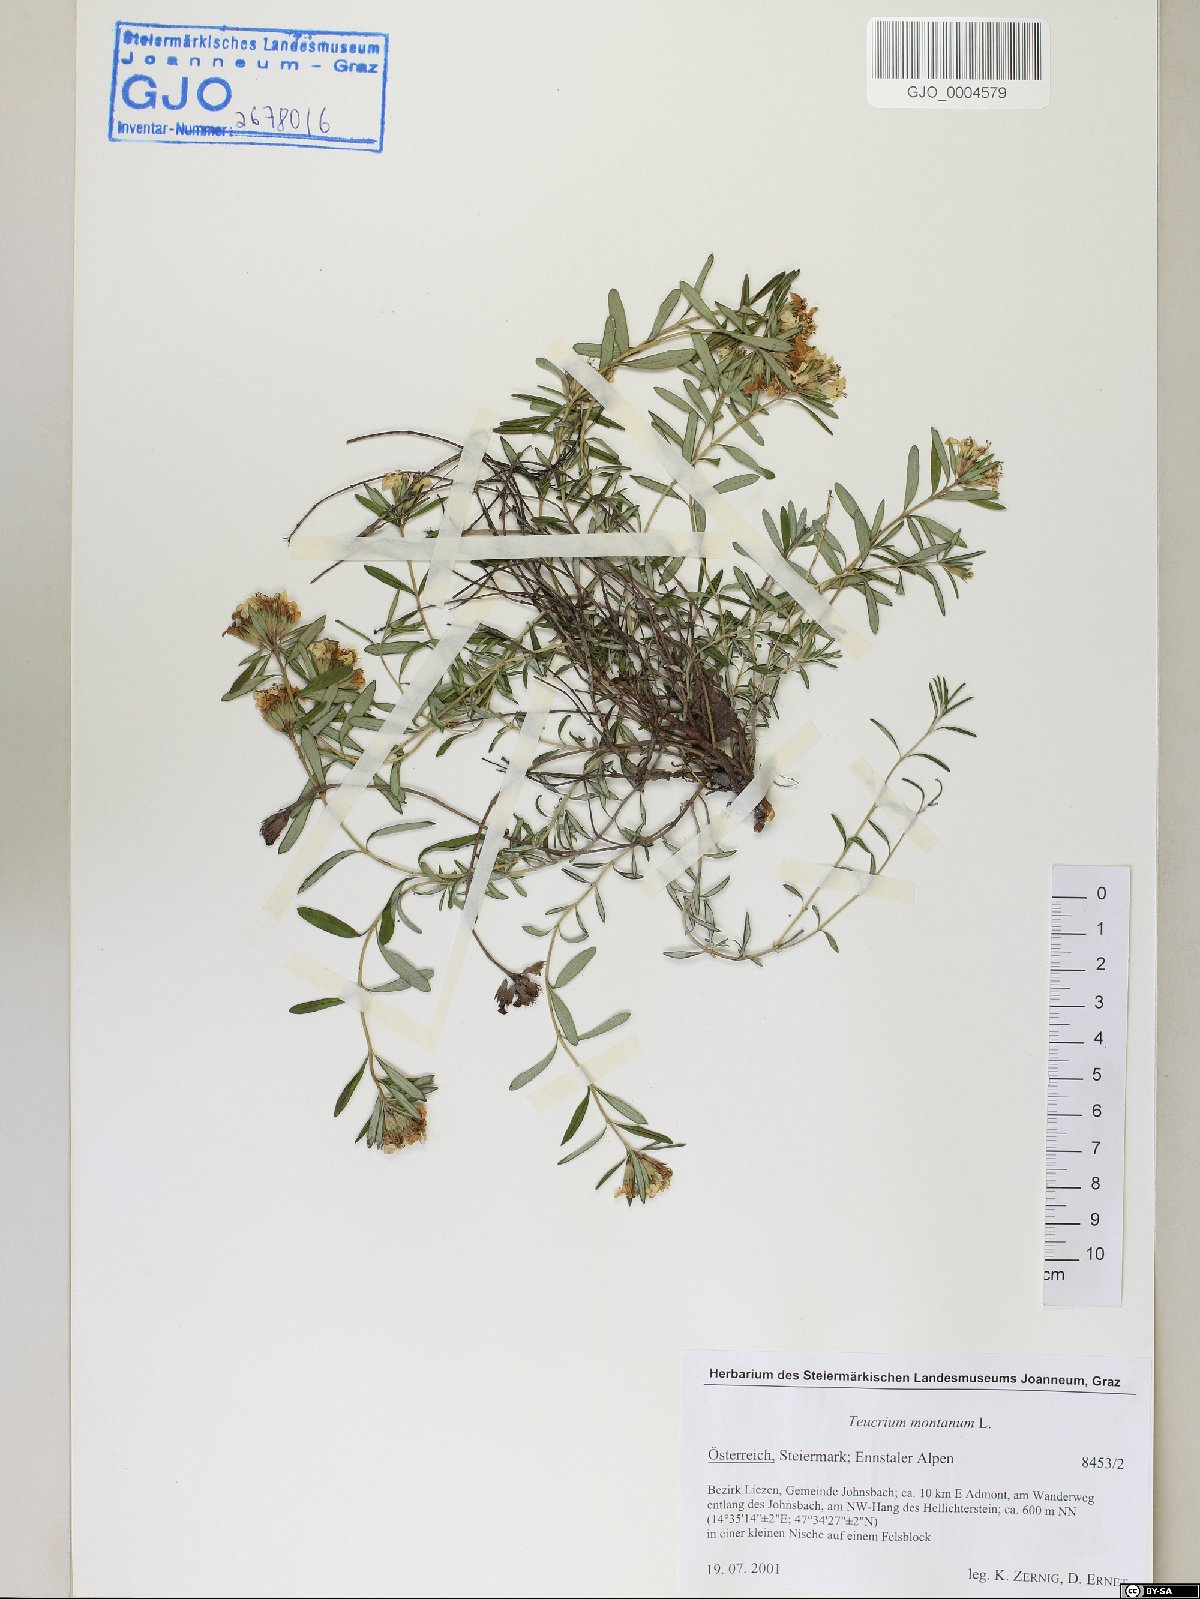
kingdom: Plantae
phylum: Tracheophyta
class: Magnoliopsida
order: Lamiales
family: Lamiaceae
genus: Teucrium
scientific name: Teucrium montanum
